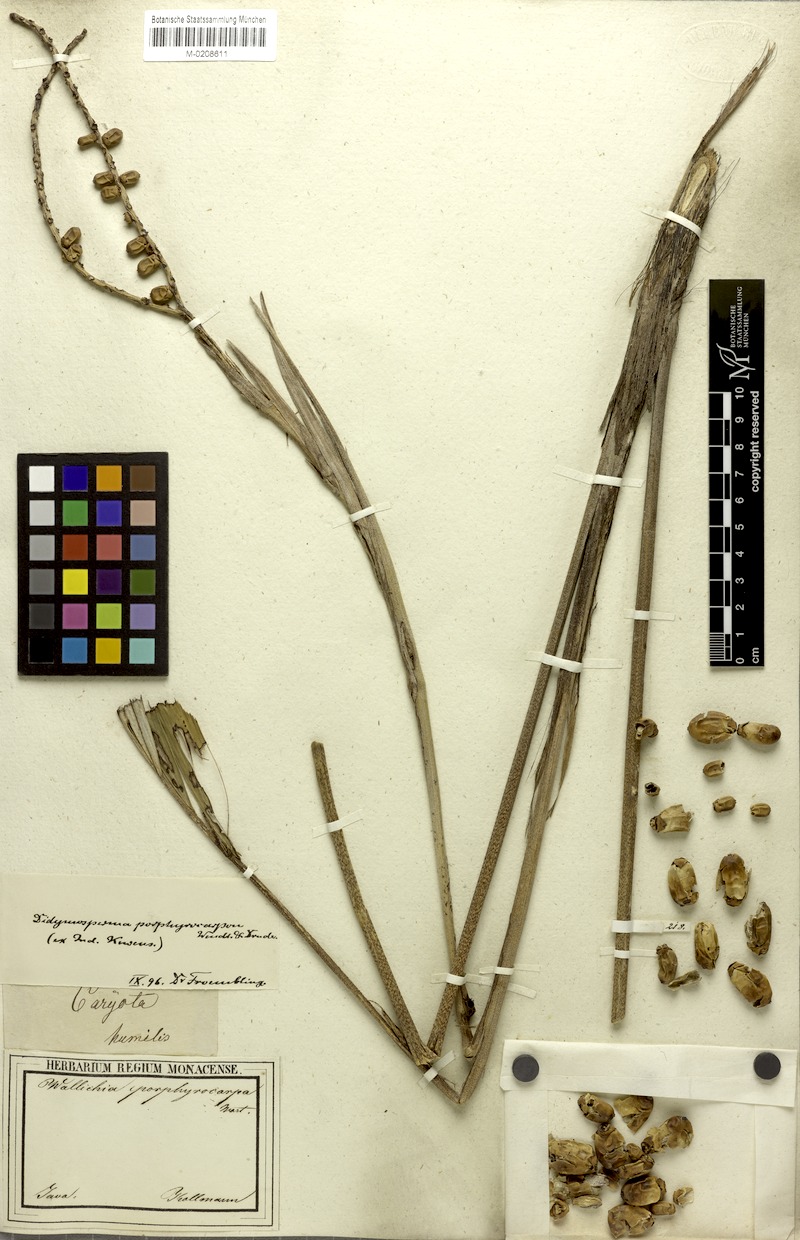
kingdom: Plantae
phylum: Tracheophyta
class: Liliopsida
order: Arecales
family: Arecaceae
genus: Arenga
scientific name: Arenga porphyrocarpa
